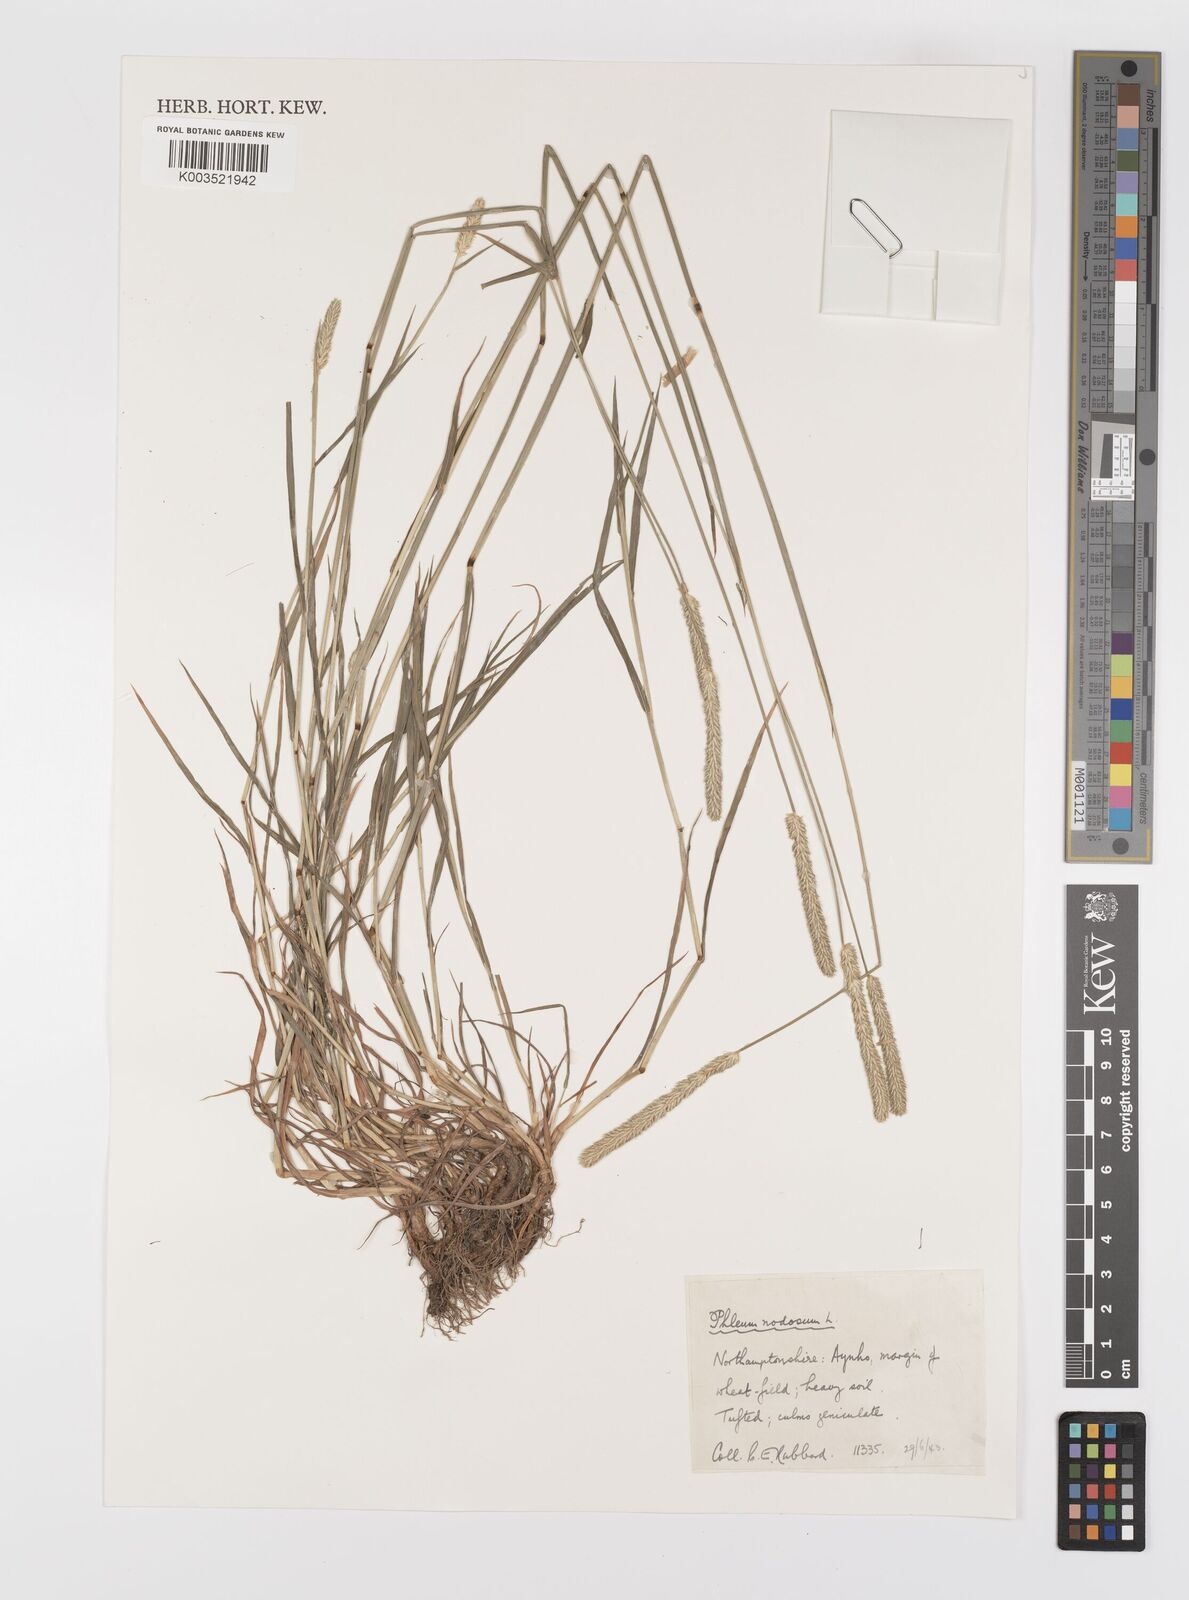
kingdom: Plantae
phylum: Tracheophyta
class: Liliopsida
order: Poales
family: Poaceae
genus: Phleum
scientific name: Phleum bertolonii
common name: Smaller cat's-tail
